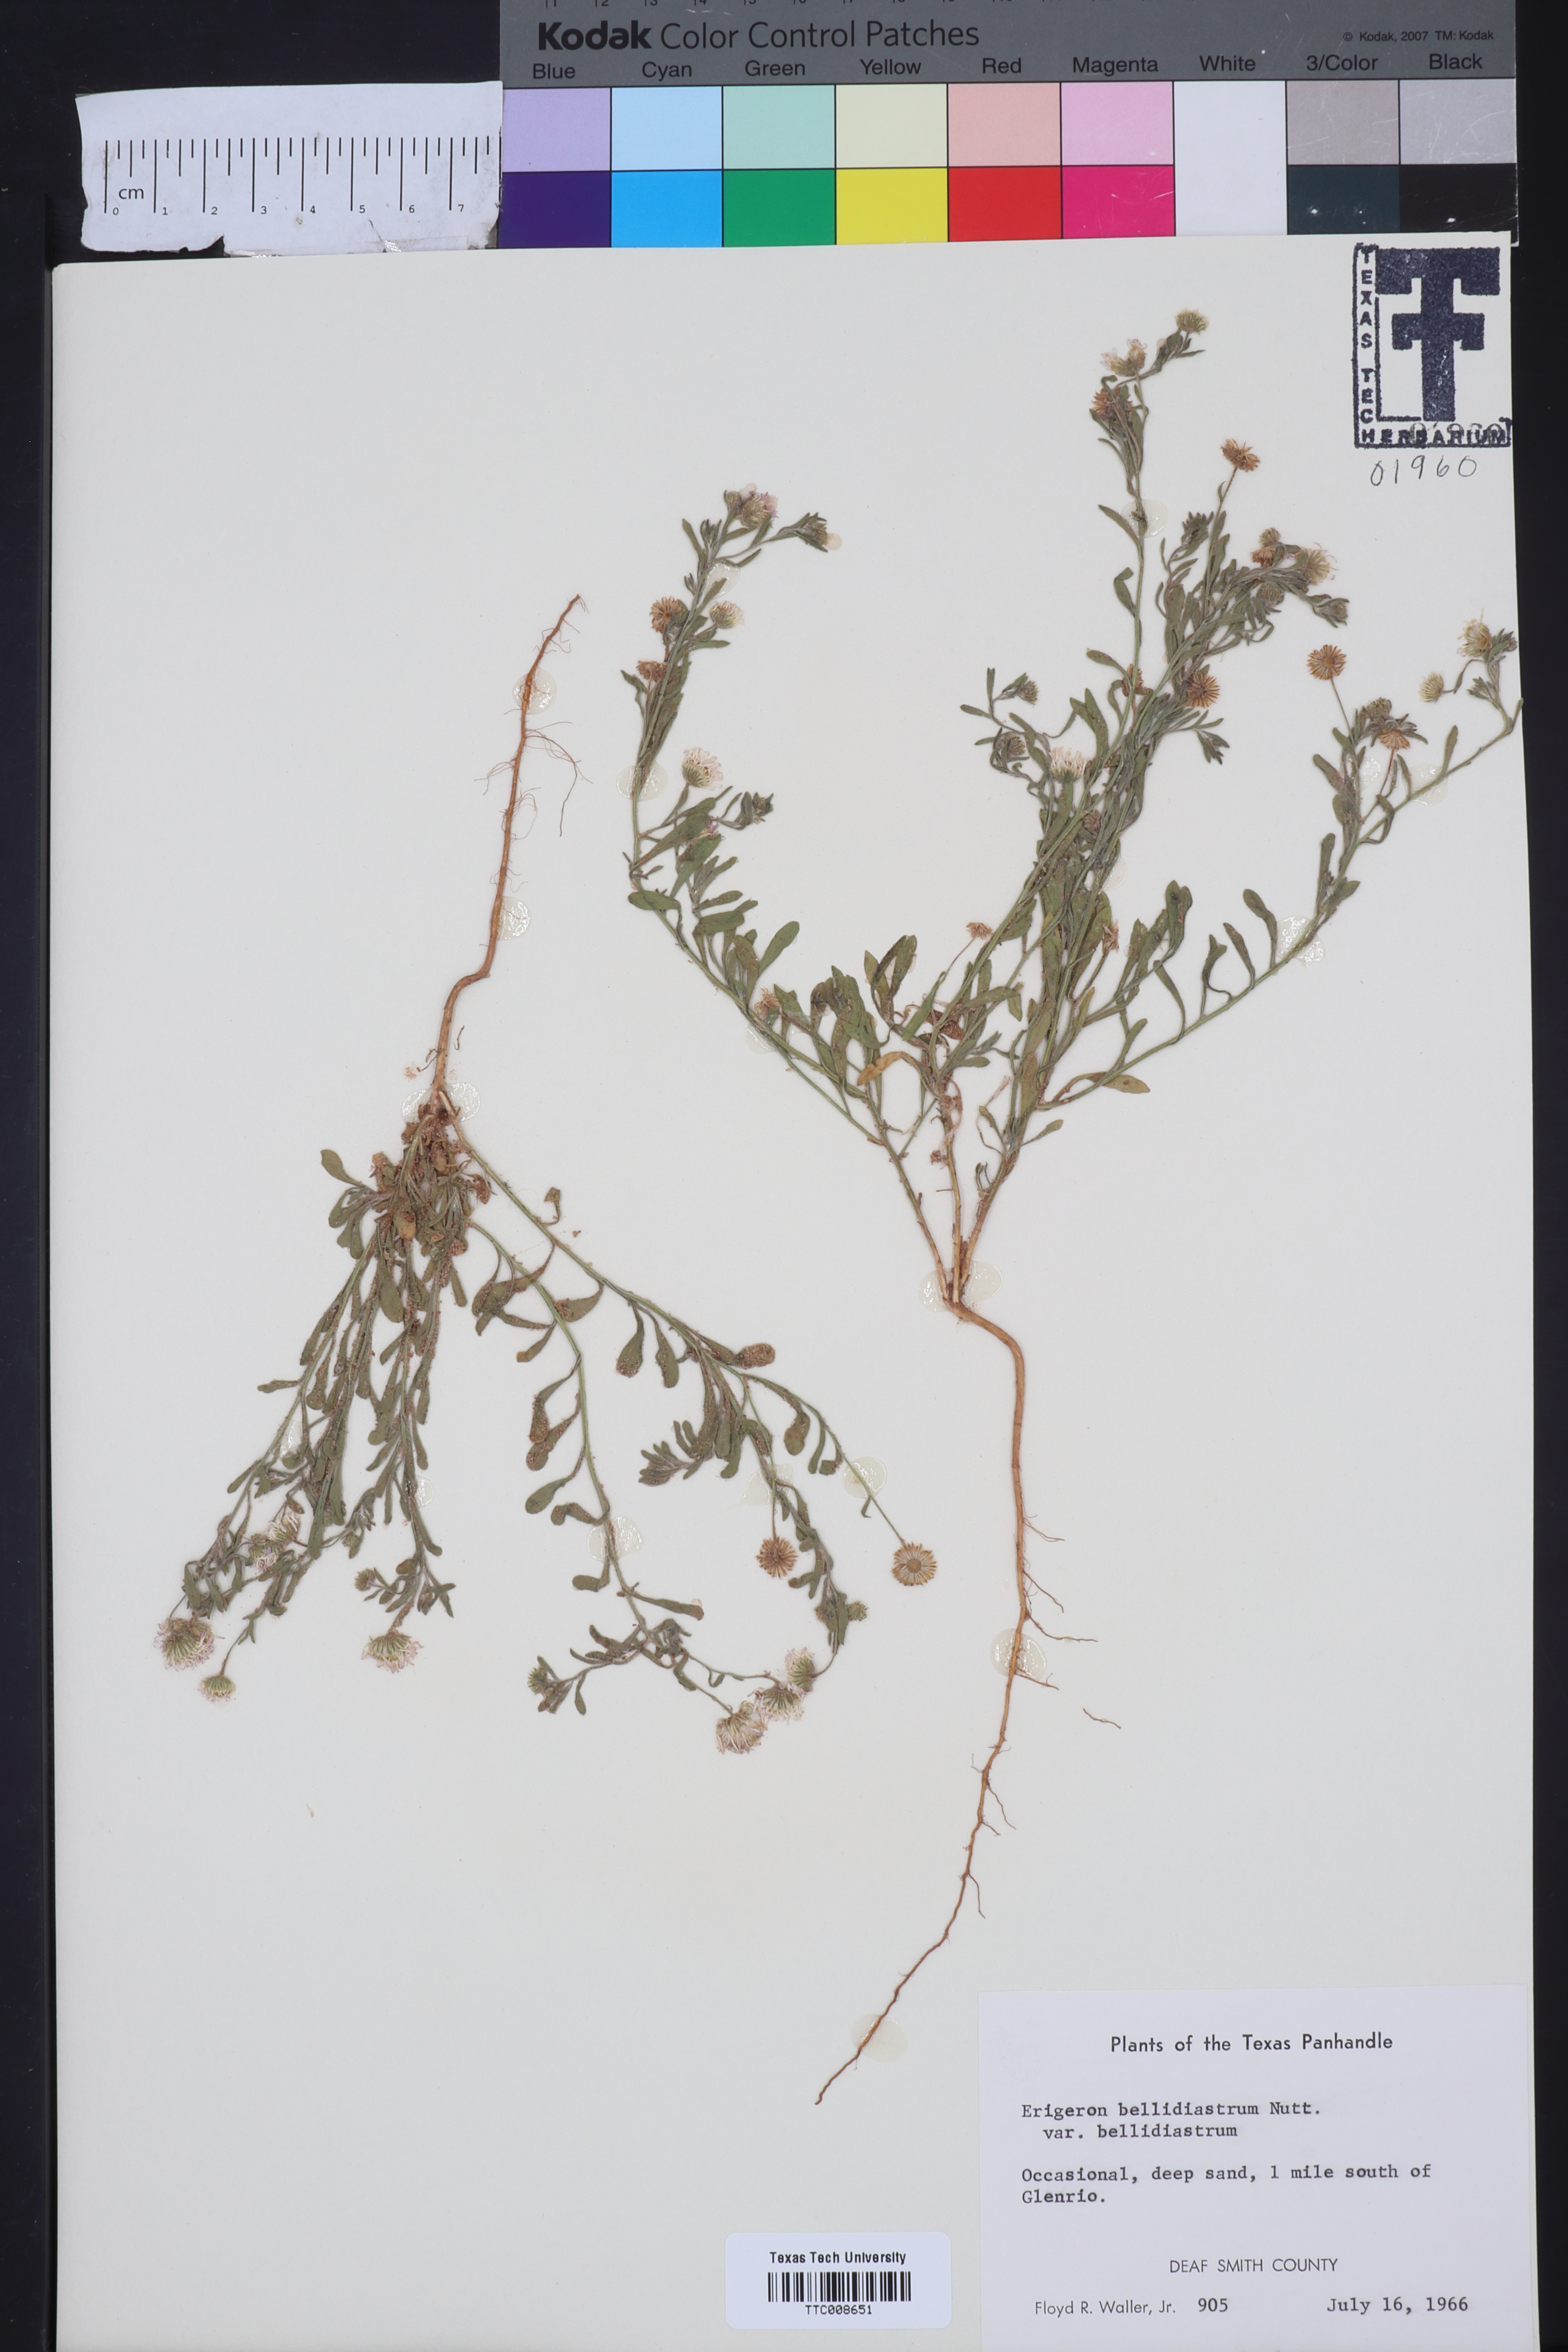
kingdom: Plantae
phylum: Tracheophyta
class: Magnoliopsida
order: Asterales
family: Asteraceae
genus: Erigeron
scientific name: Erigeron bellidiastrum
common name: Sand fleabane
